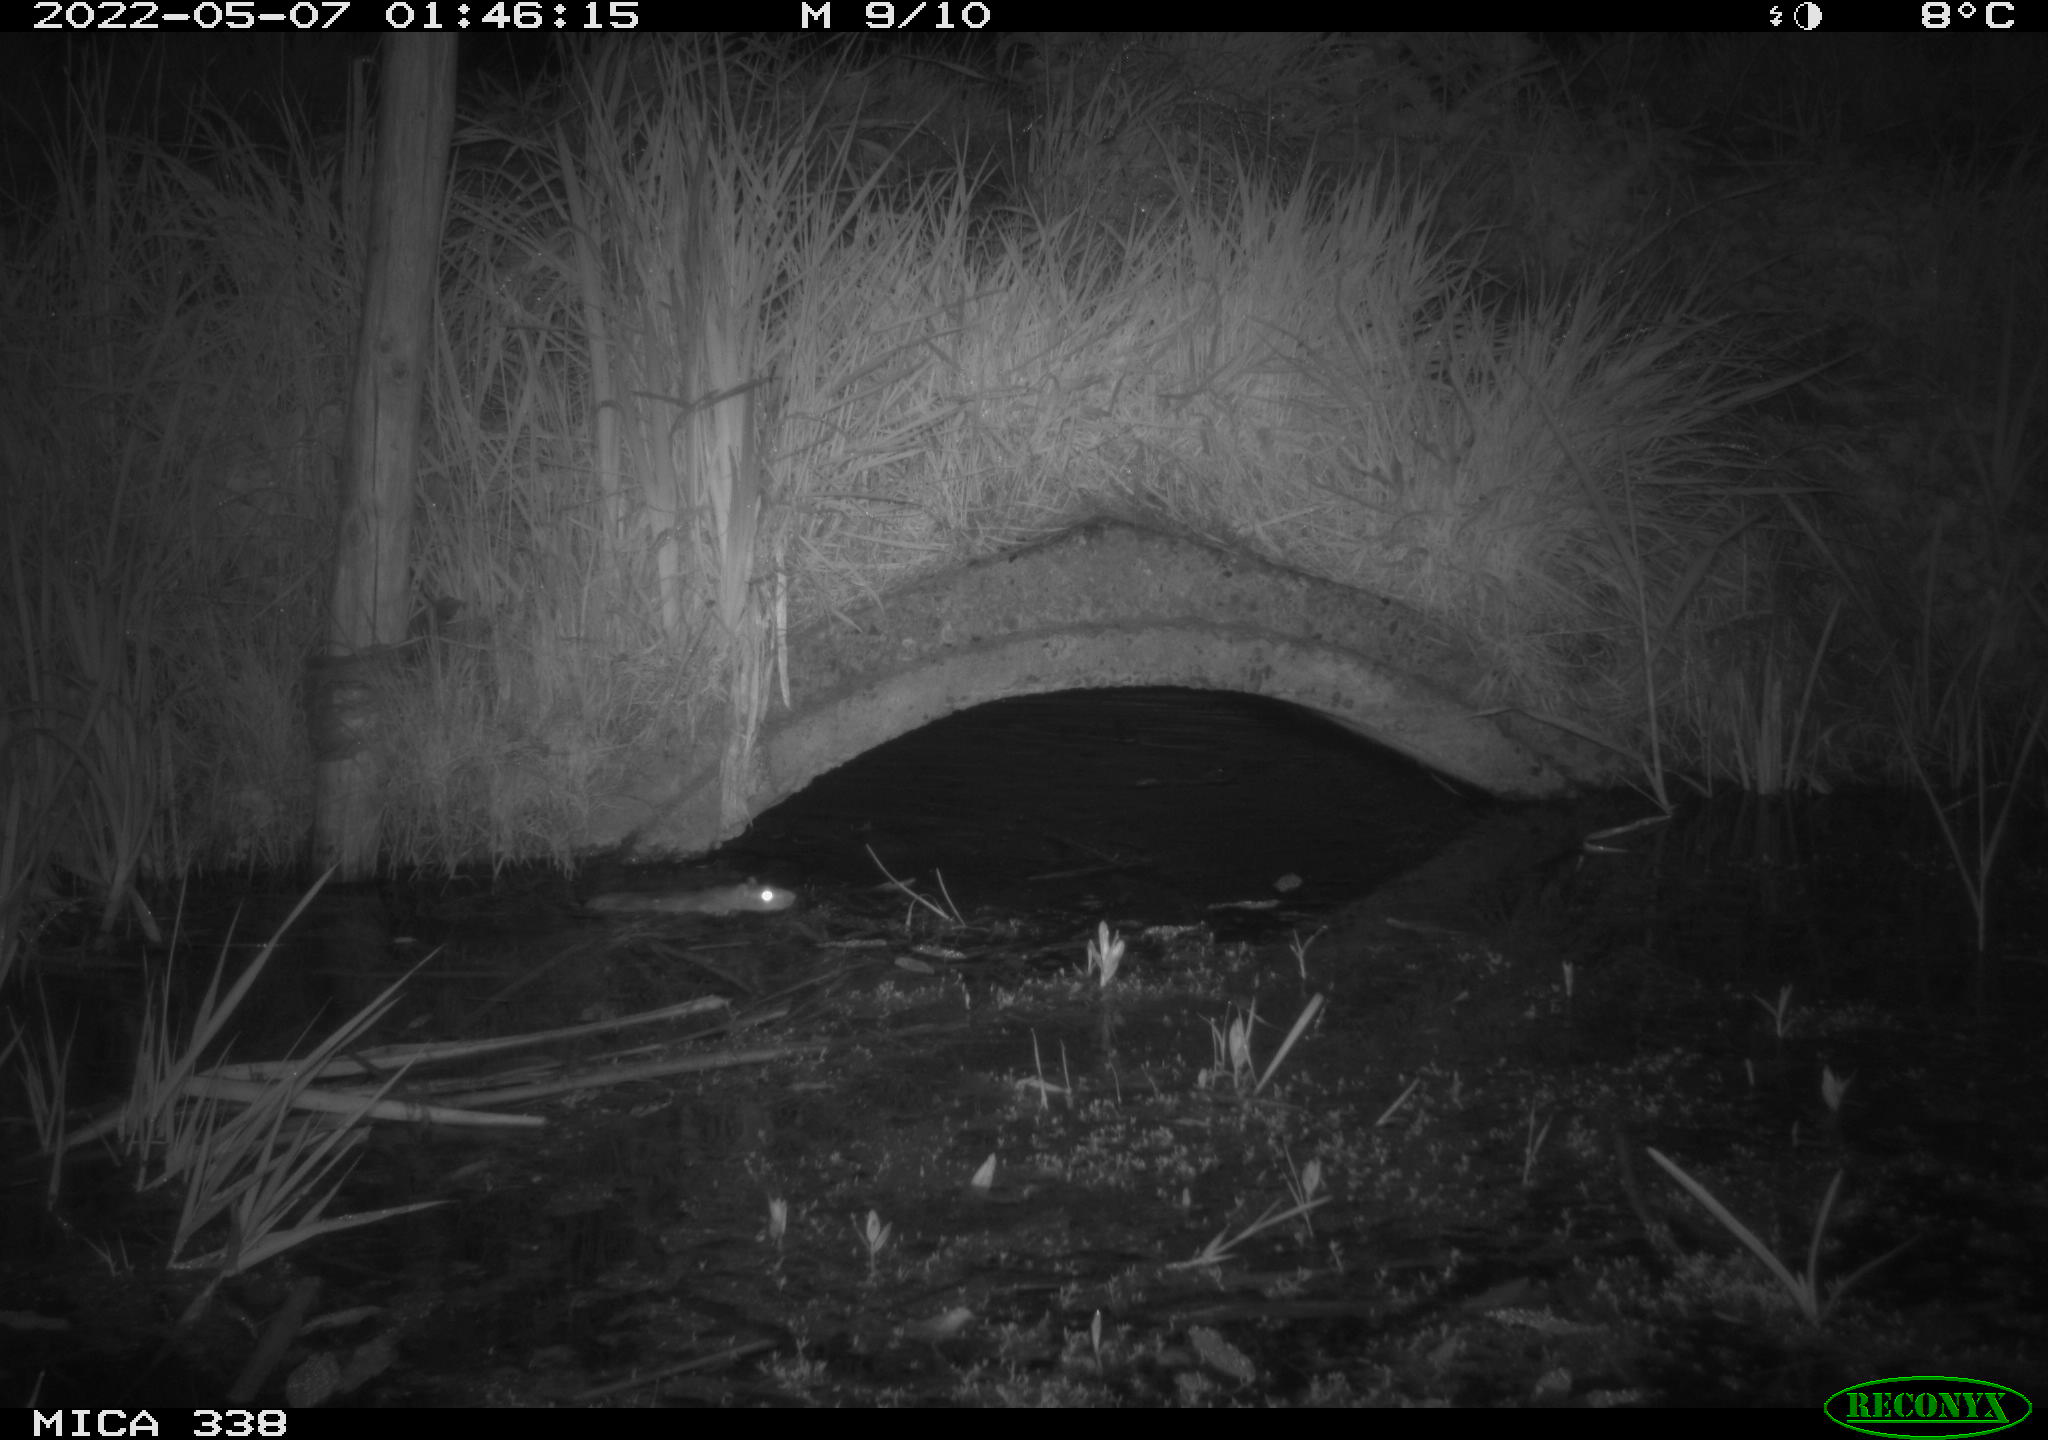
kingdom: Animalia
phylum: Chordata
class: Mammalia
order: Rodentia
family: Muridae
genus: Rattus
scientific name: Rattus norvegicus
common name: Brown rat
